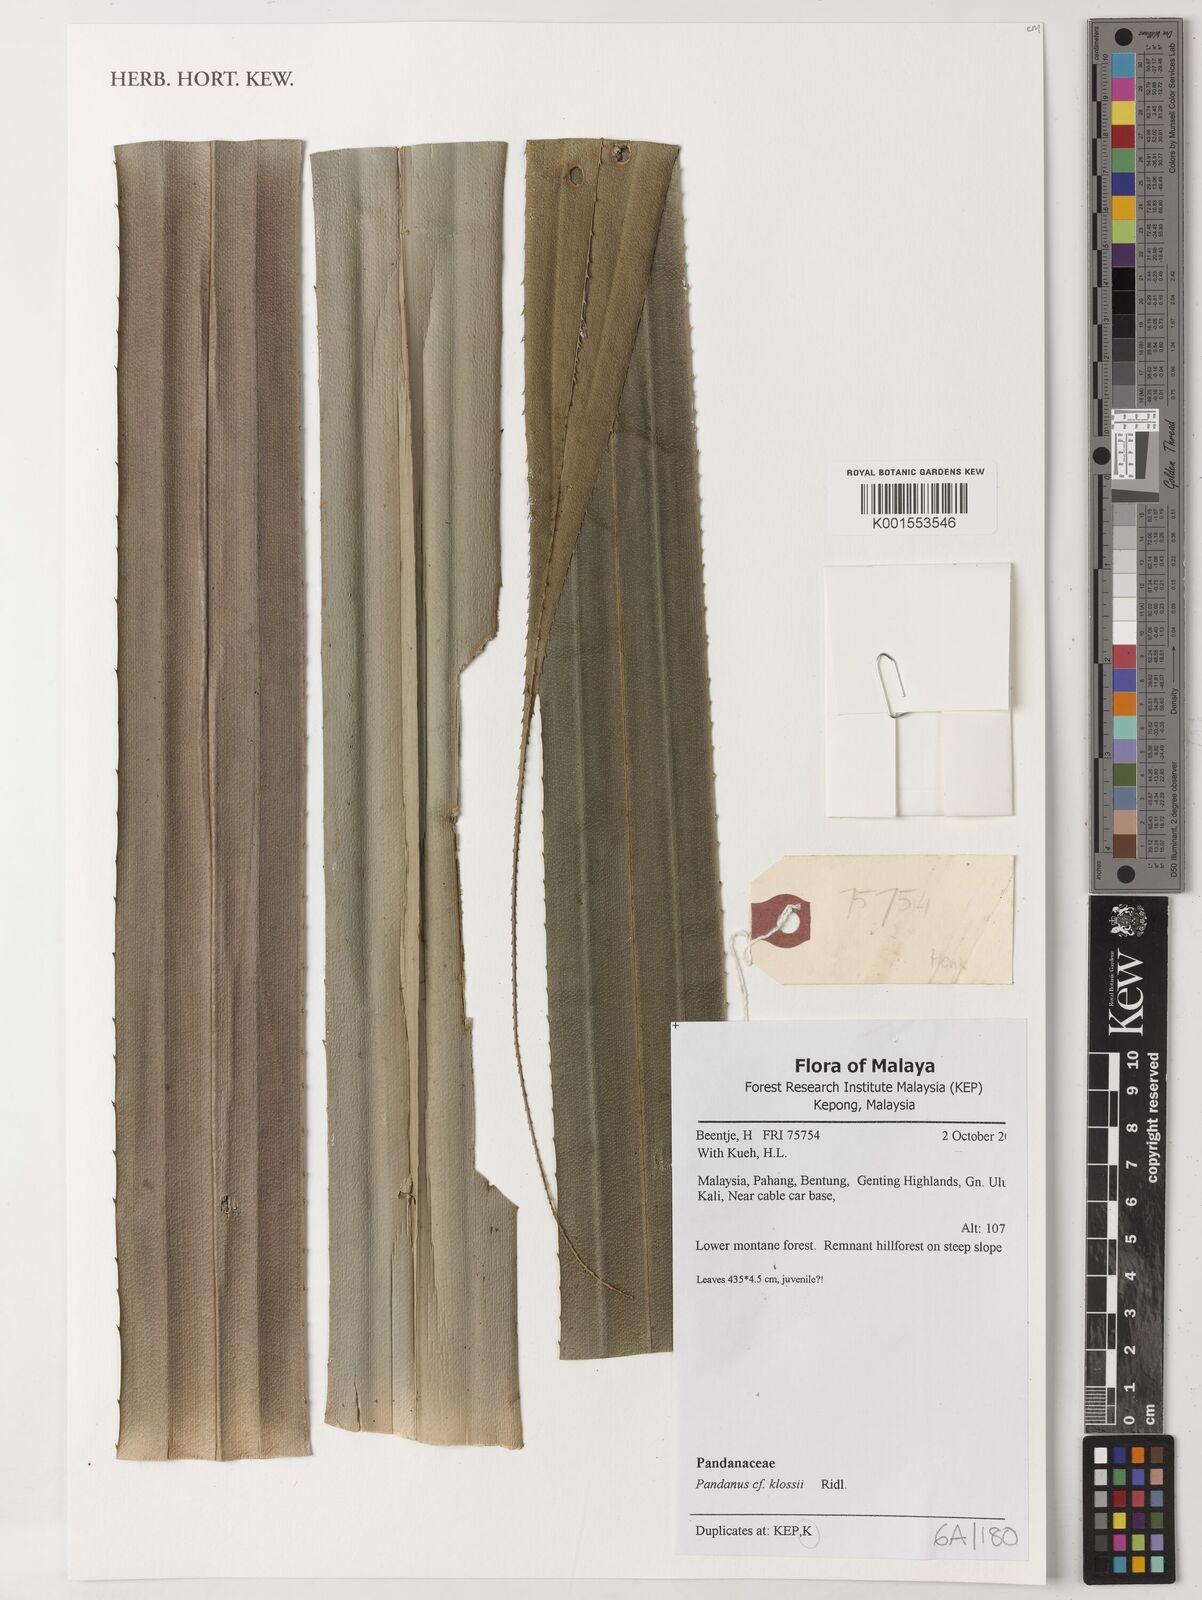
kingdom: Plantae
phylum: Tracheophyta
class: Liliopsida
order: Pandanales
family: Pandanaceae
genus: Pandanus
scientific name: Pandanus klossii
